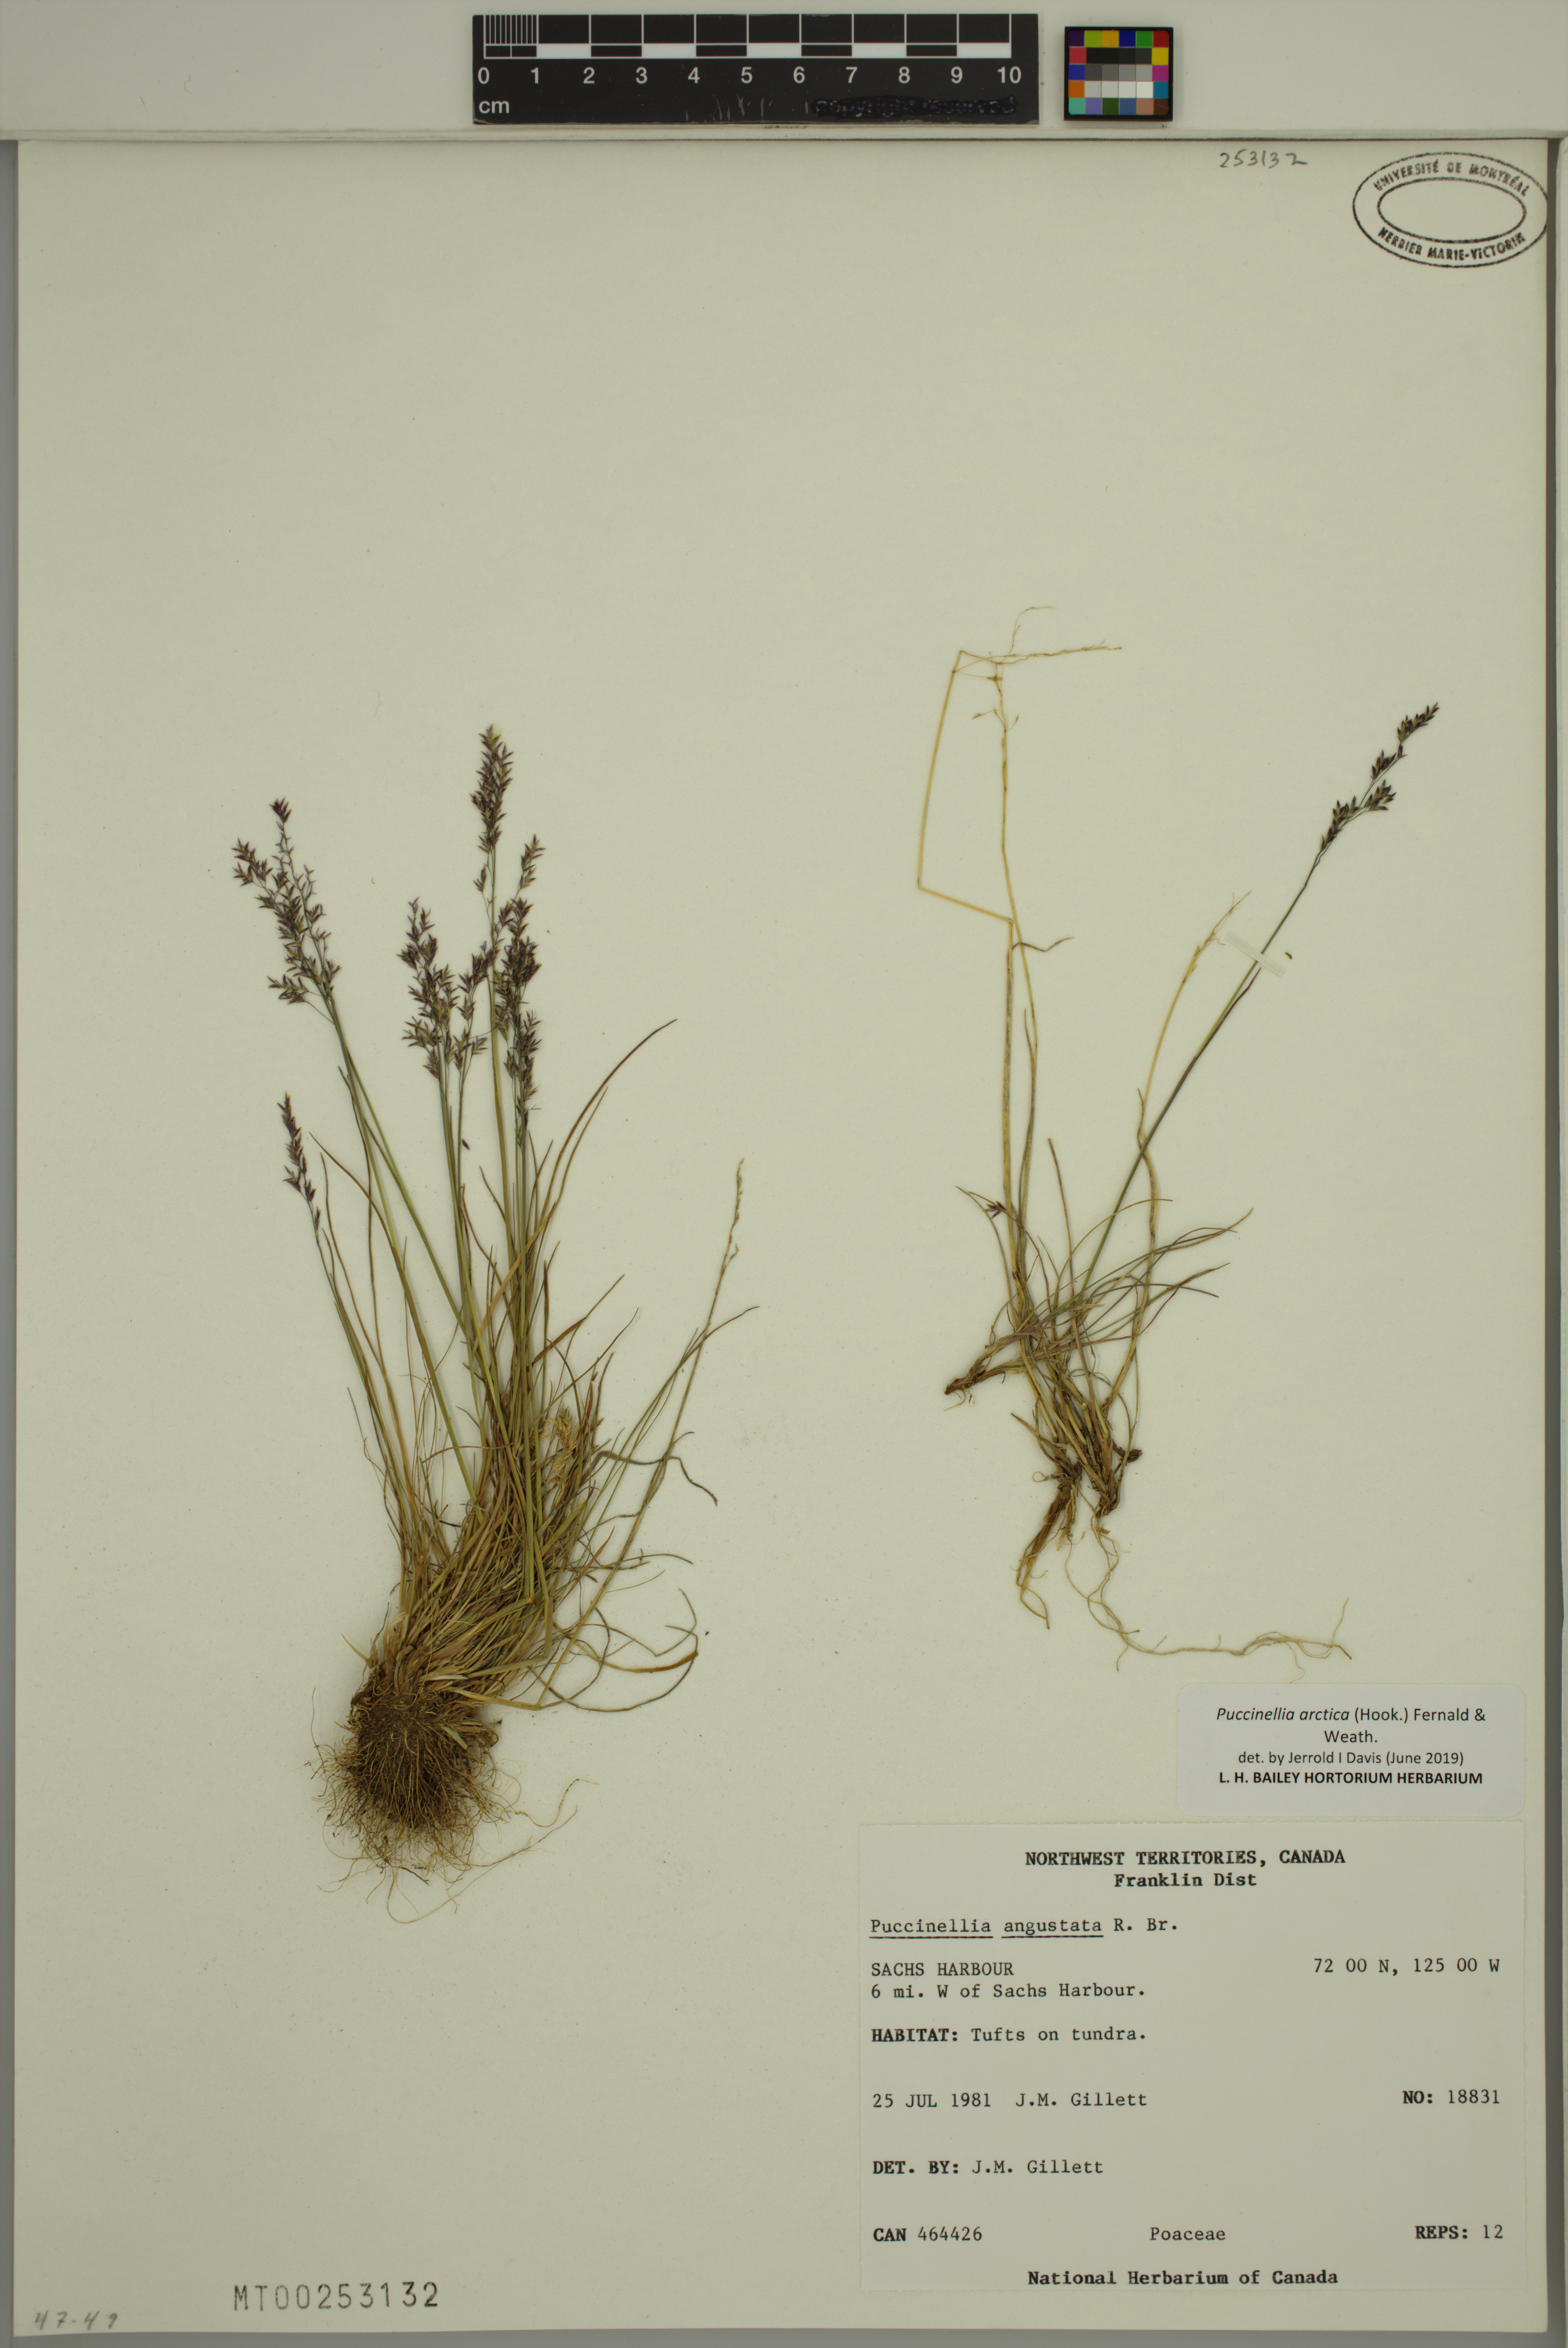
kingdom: Plantae
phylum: Tracheophyta
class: Liliopsida
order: Poales
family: Poaceae
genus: Puccinellia
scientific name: Puccinellia arctica
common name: Arctic alkali grass
